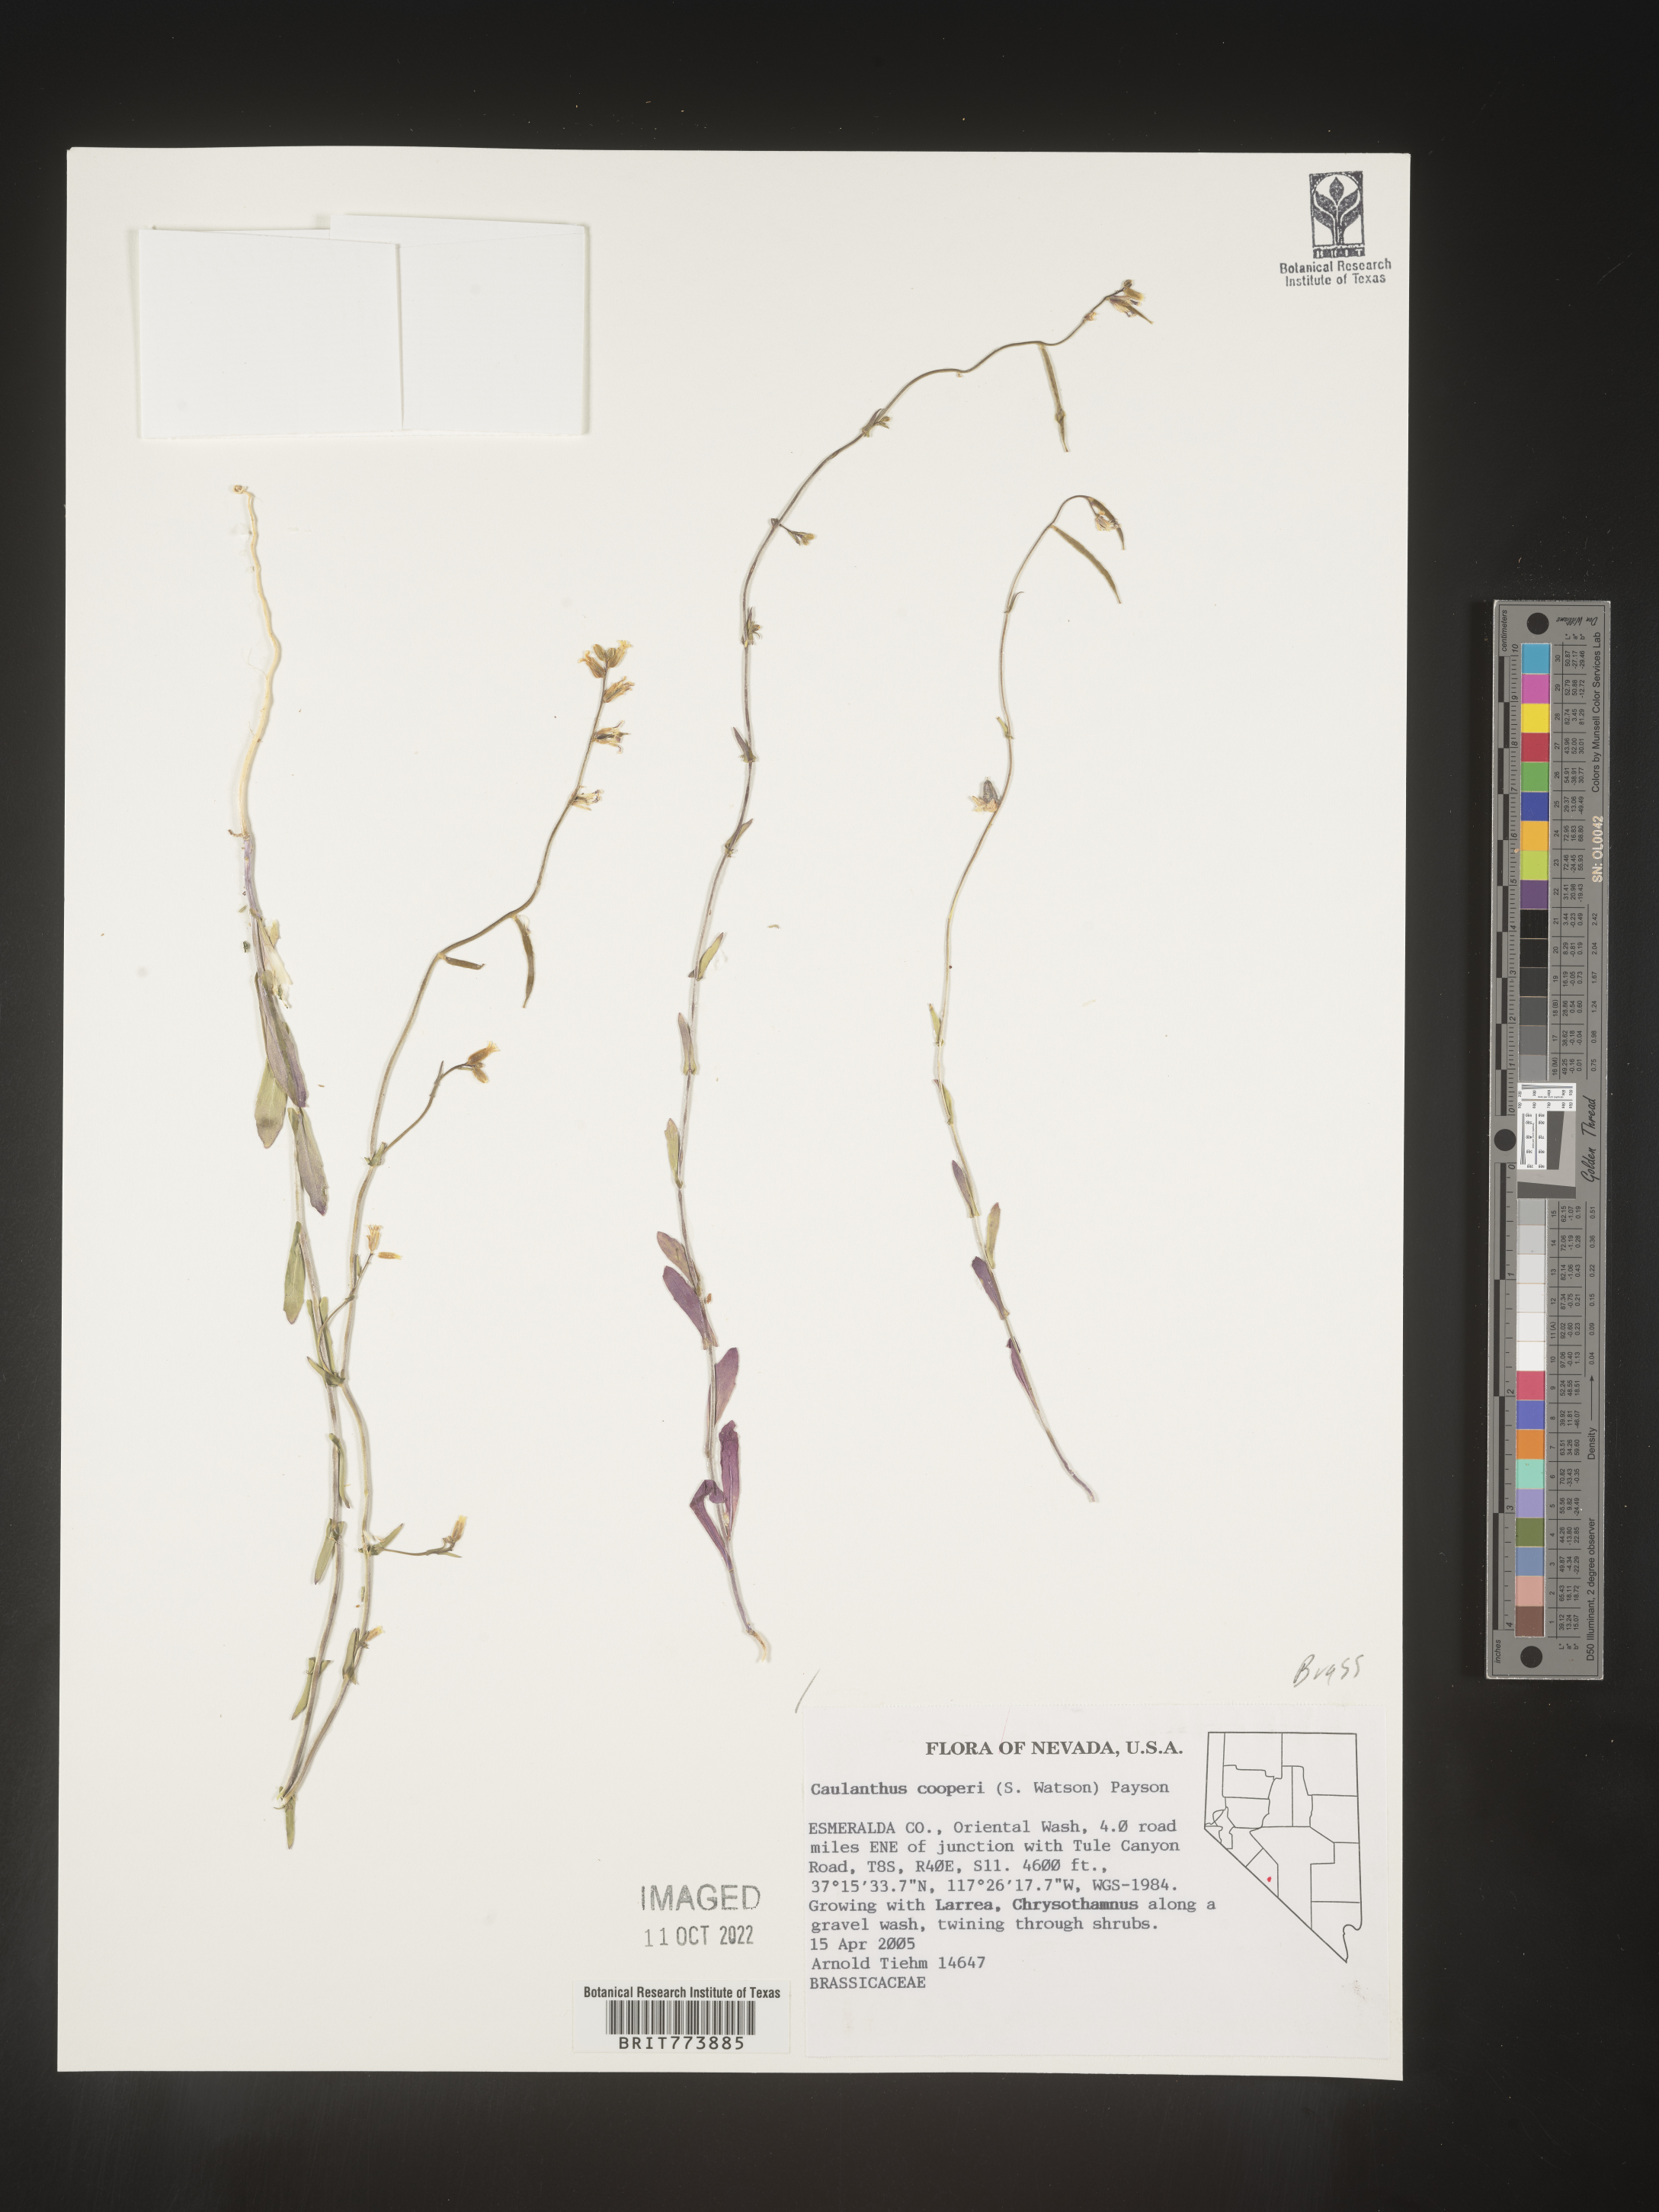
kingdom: Plantae
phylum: Tracheophyta
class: Magnoliopsida
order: Brassicales
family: Brassicaceae
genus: Streptanthus
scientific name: Streptanthus
